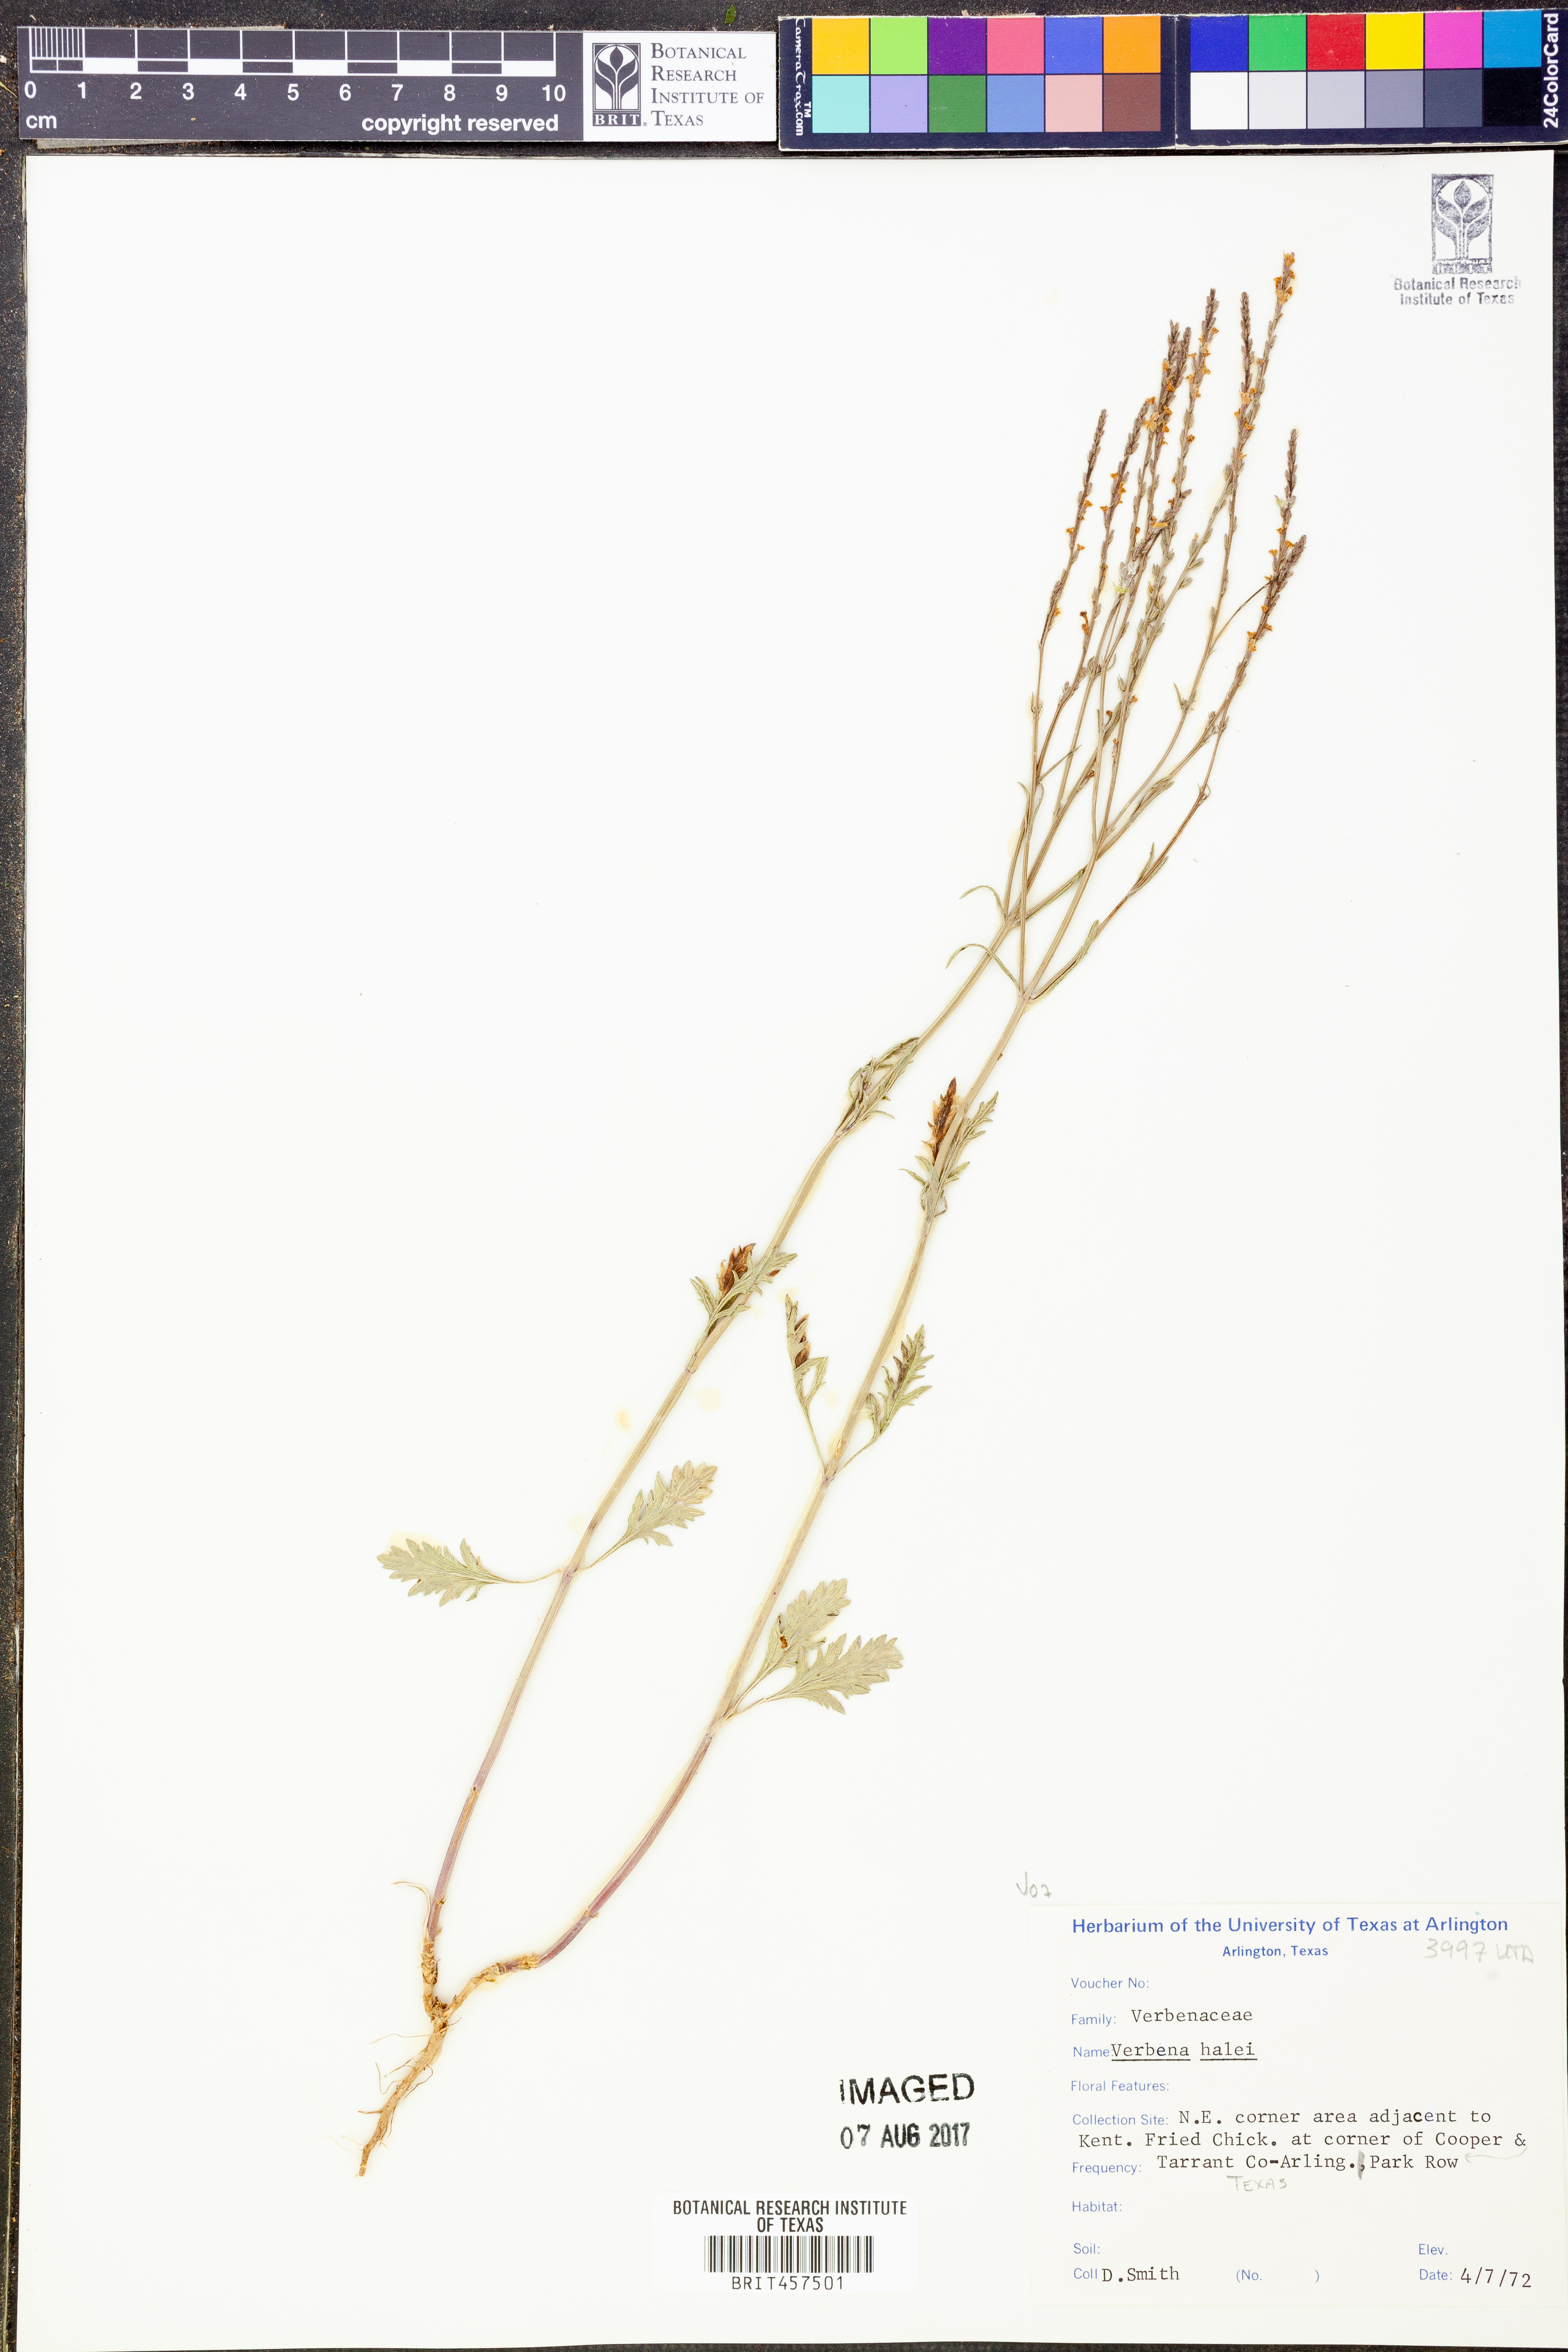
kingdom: Plantae
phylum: Tracheophyta
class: Magnoliopsida
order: Lamiales
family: Verbenaceae
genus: Verbena
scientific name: Verbena halei
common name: Texas vervain
